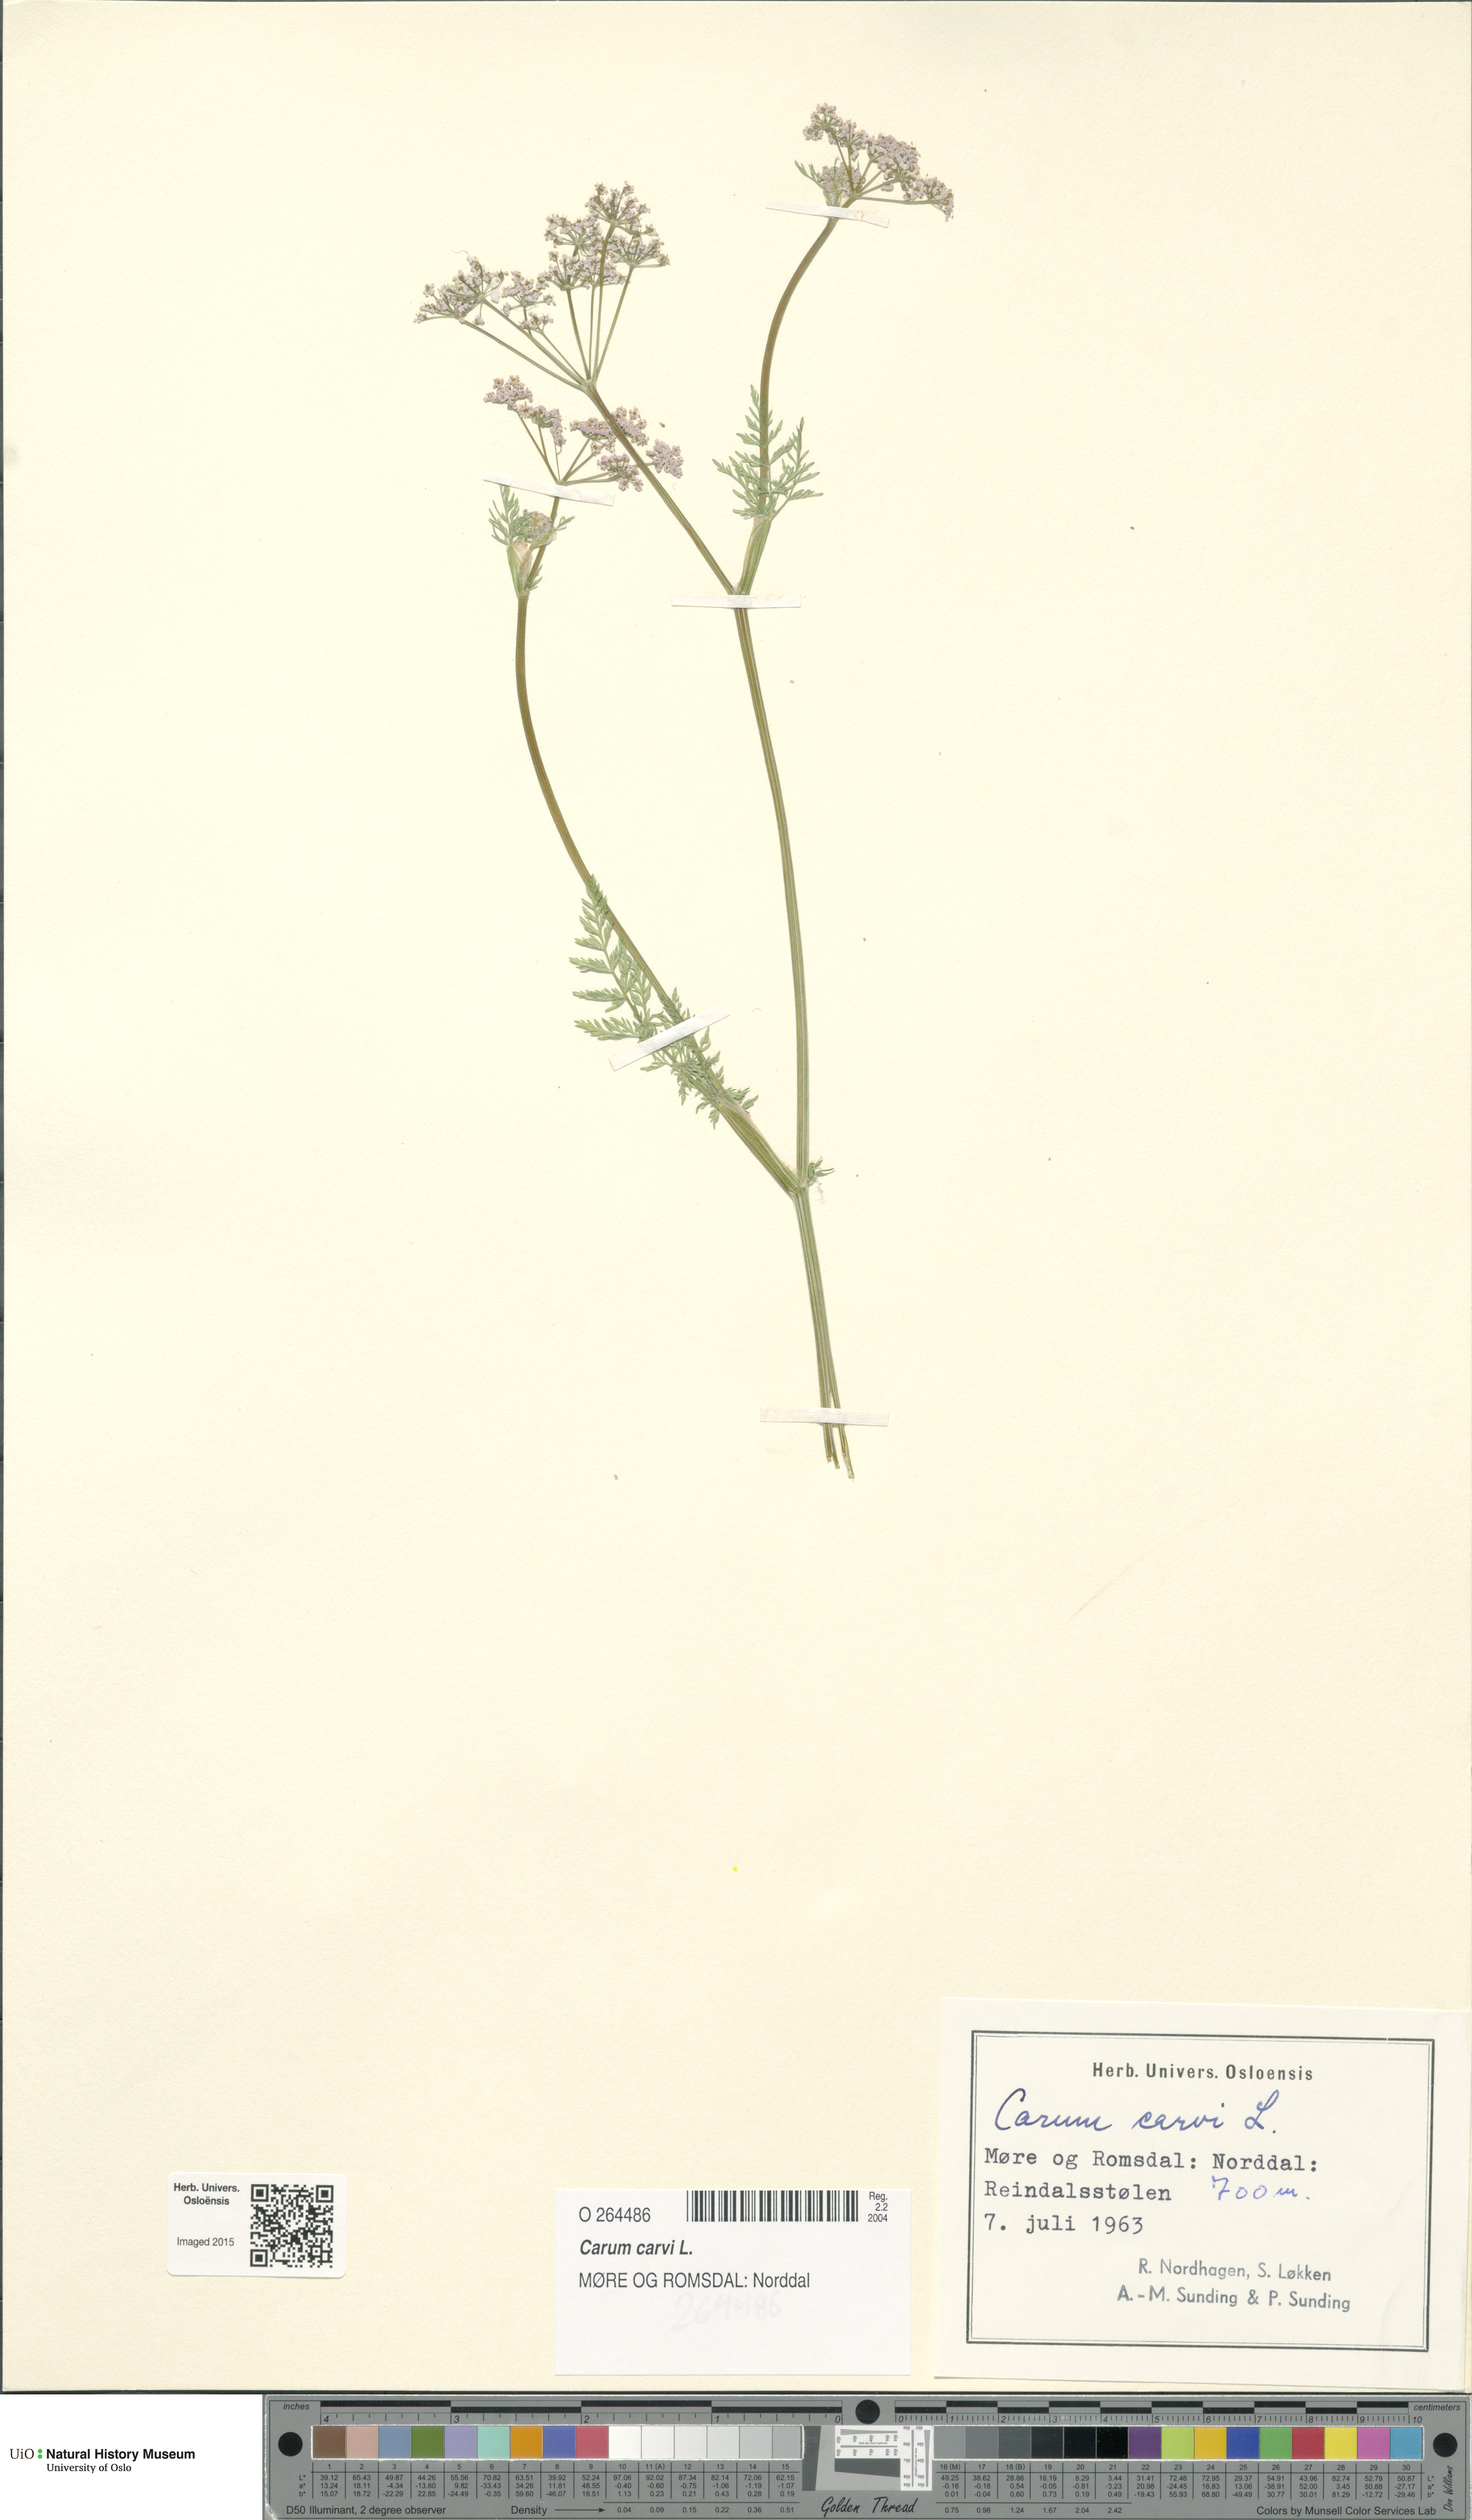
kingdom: Plantae
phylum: Tracheophyta
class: Magnoliopsida
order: Apiales
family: Apiaceae
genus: Carum
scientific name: Carum carvi
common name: Caraway
